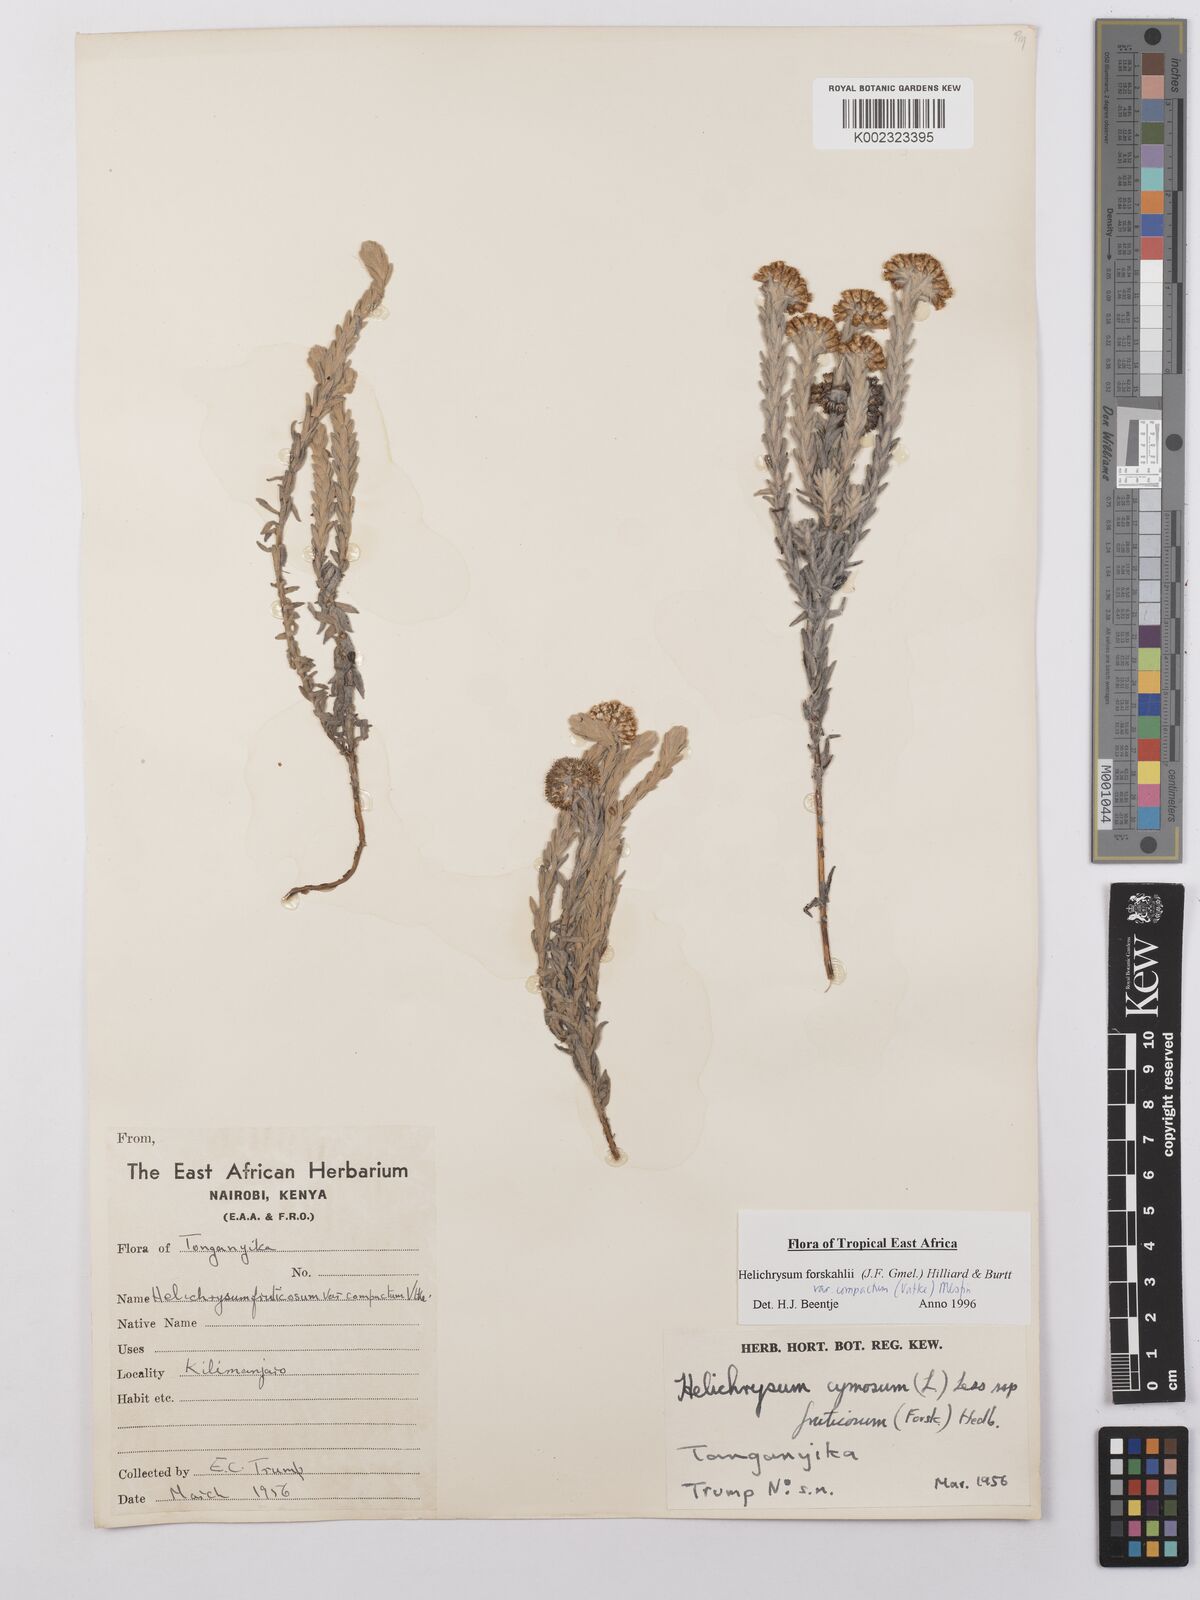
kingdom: Plantae
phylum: Tracheophyta
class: Magnoliopsida
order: Asterales
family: Asteraceae
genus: Helichrysum
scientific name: Helichrysum forskahlii
